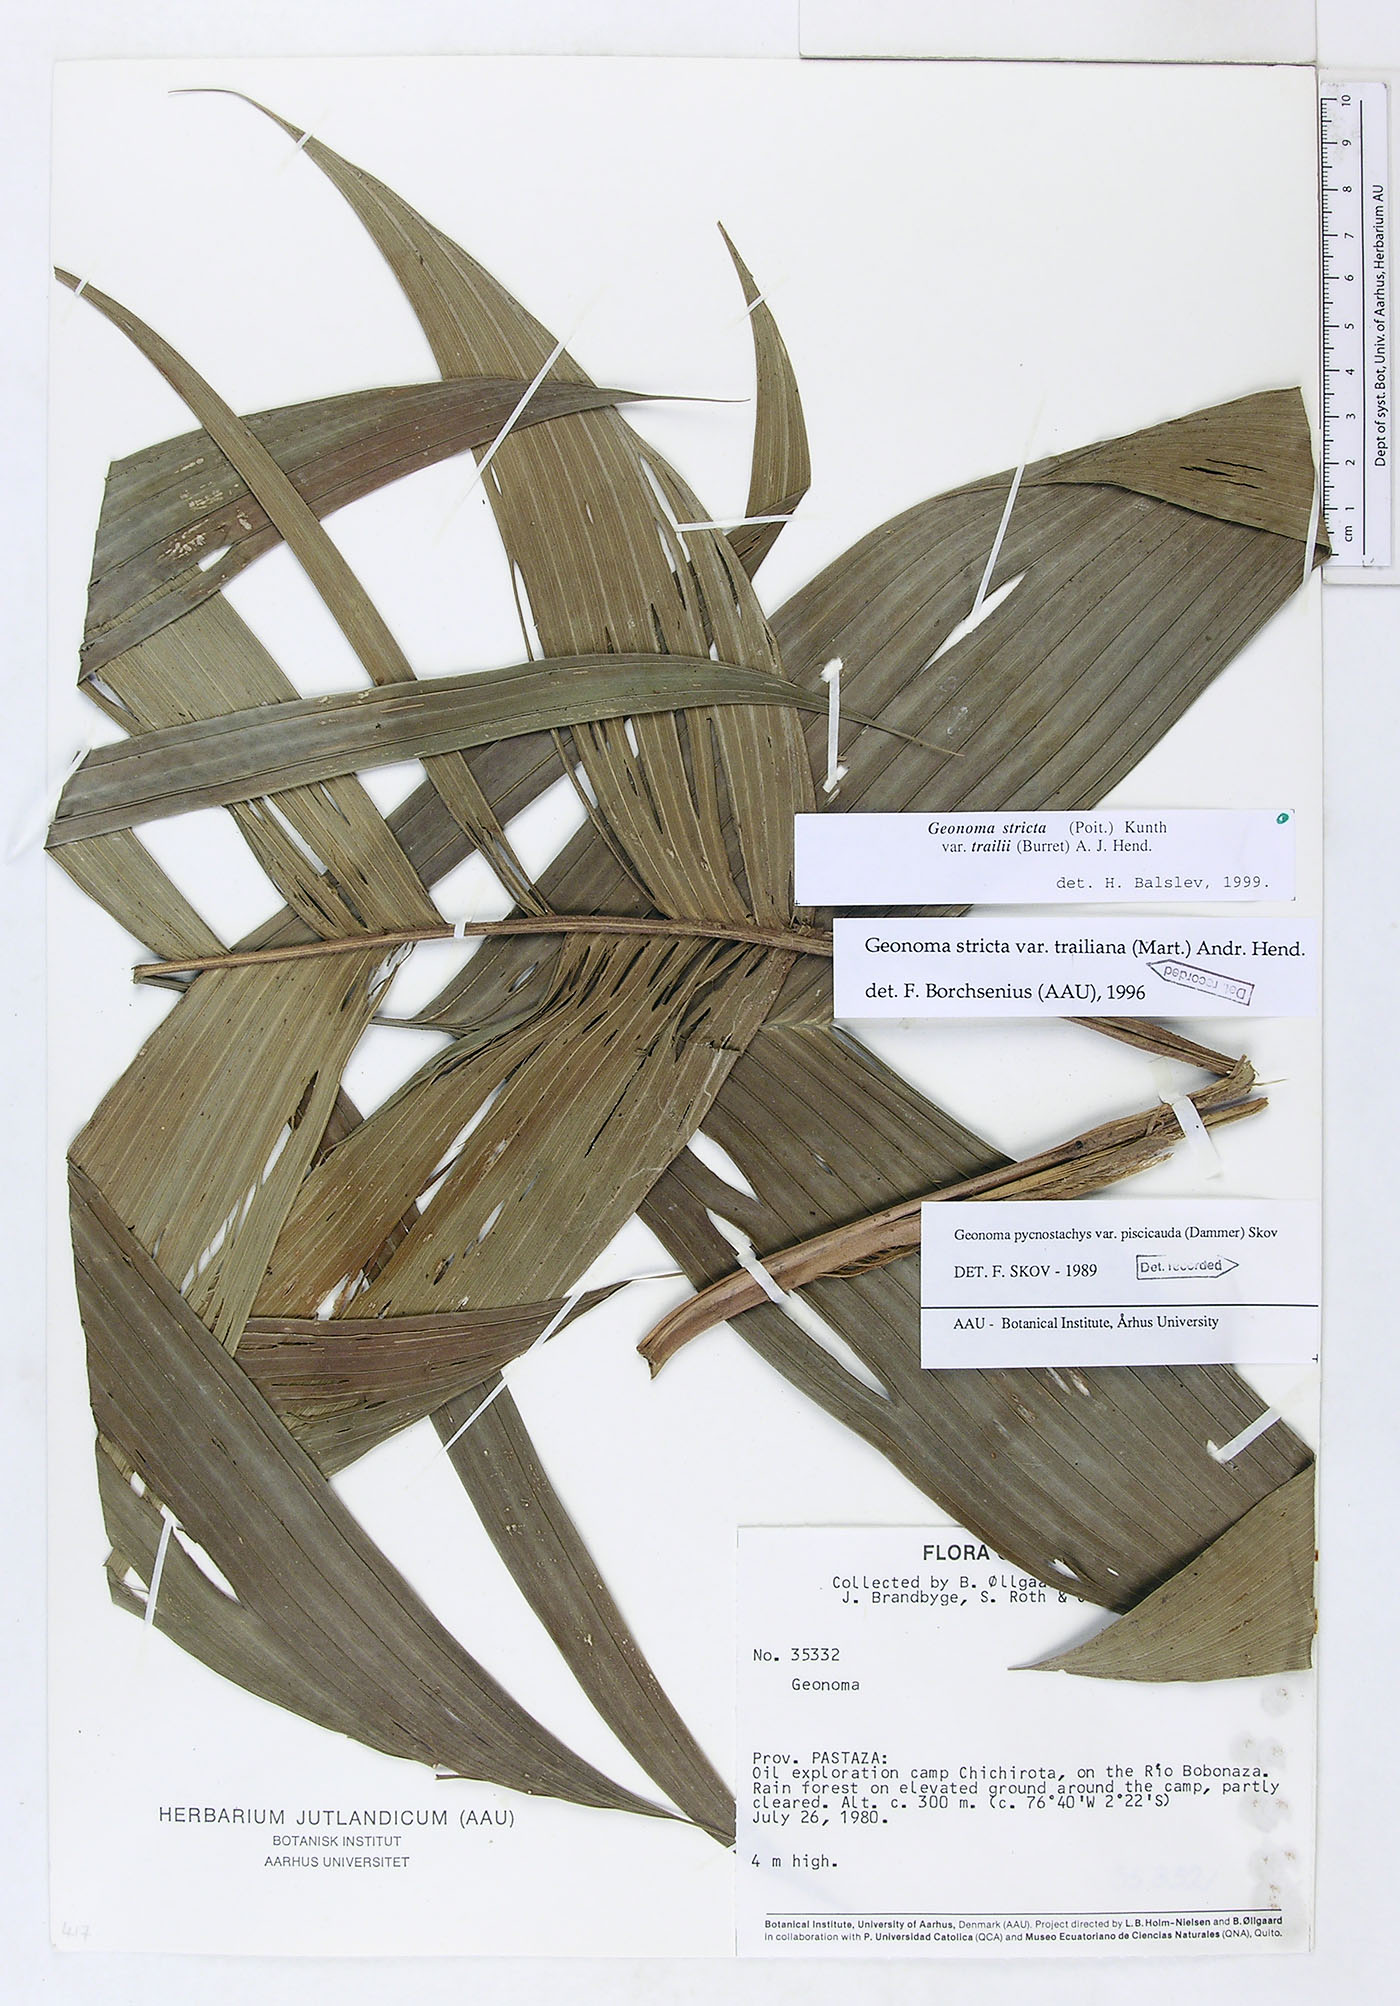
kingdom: Plantae
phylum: Tracheophyta
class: Liliopsida
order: Arecales
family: Arecaceae
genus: Geonoma
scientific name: Geonoma stricta
